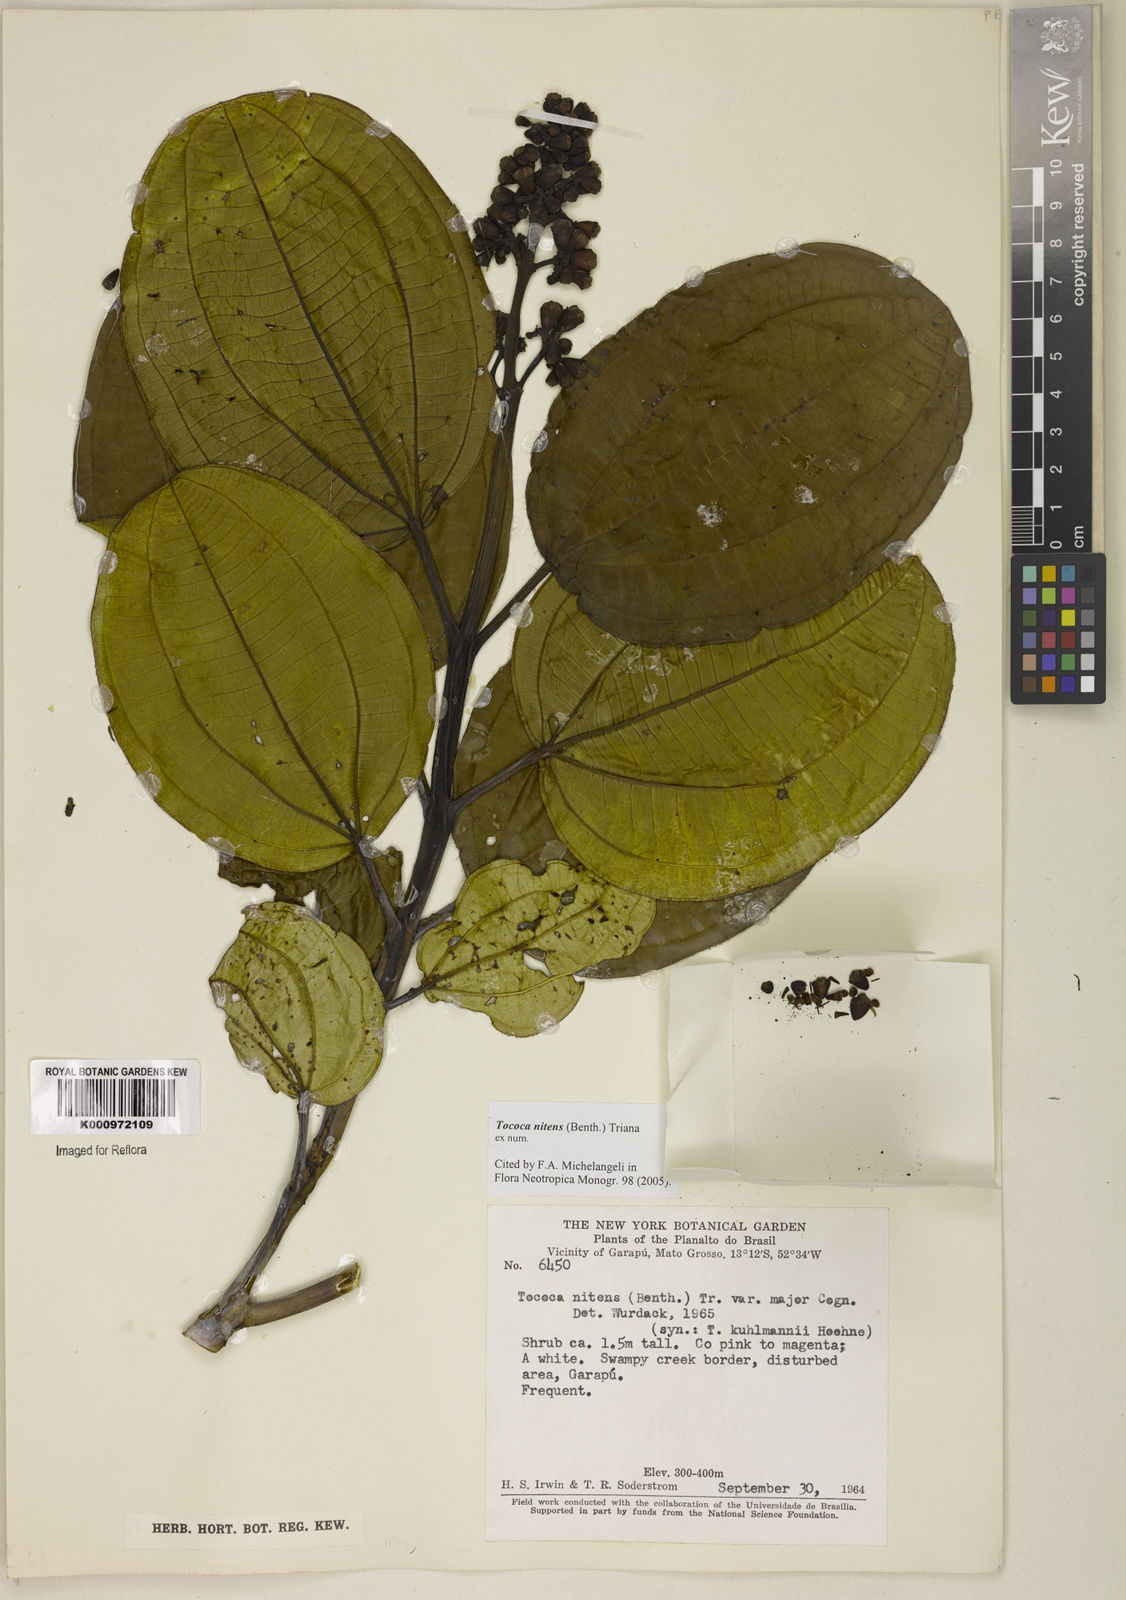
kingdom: Plantae
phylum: Tracheophyta
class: Magnoliopsida
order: Myrtales
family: Melastomataceae
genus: Miconia
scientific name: Miconia nitens
